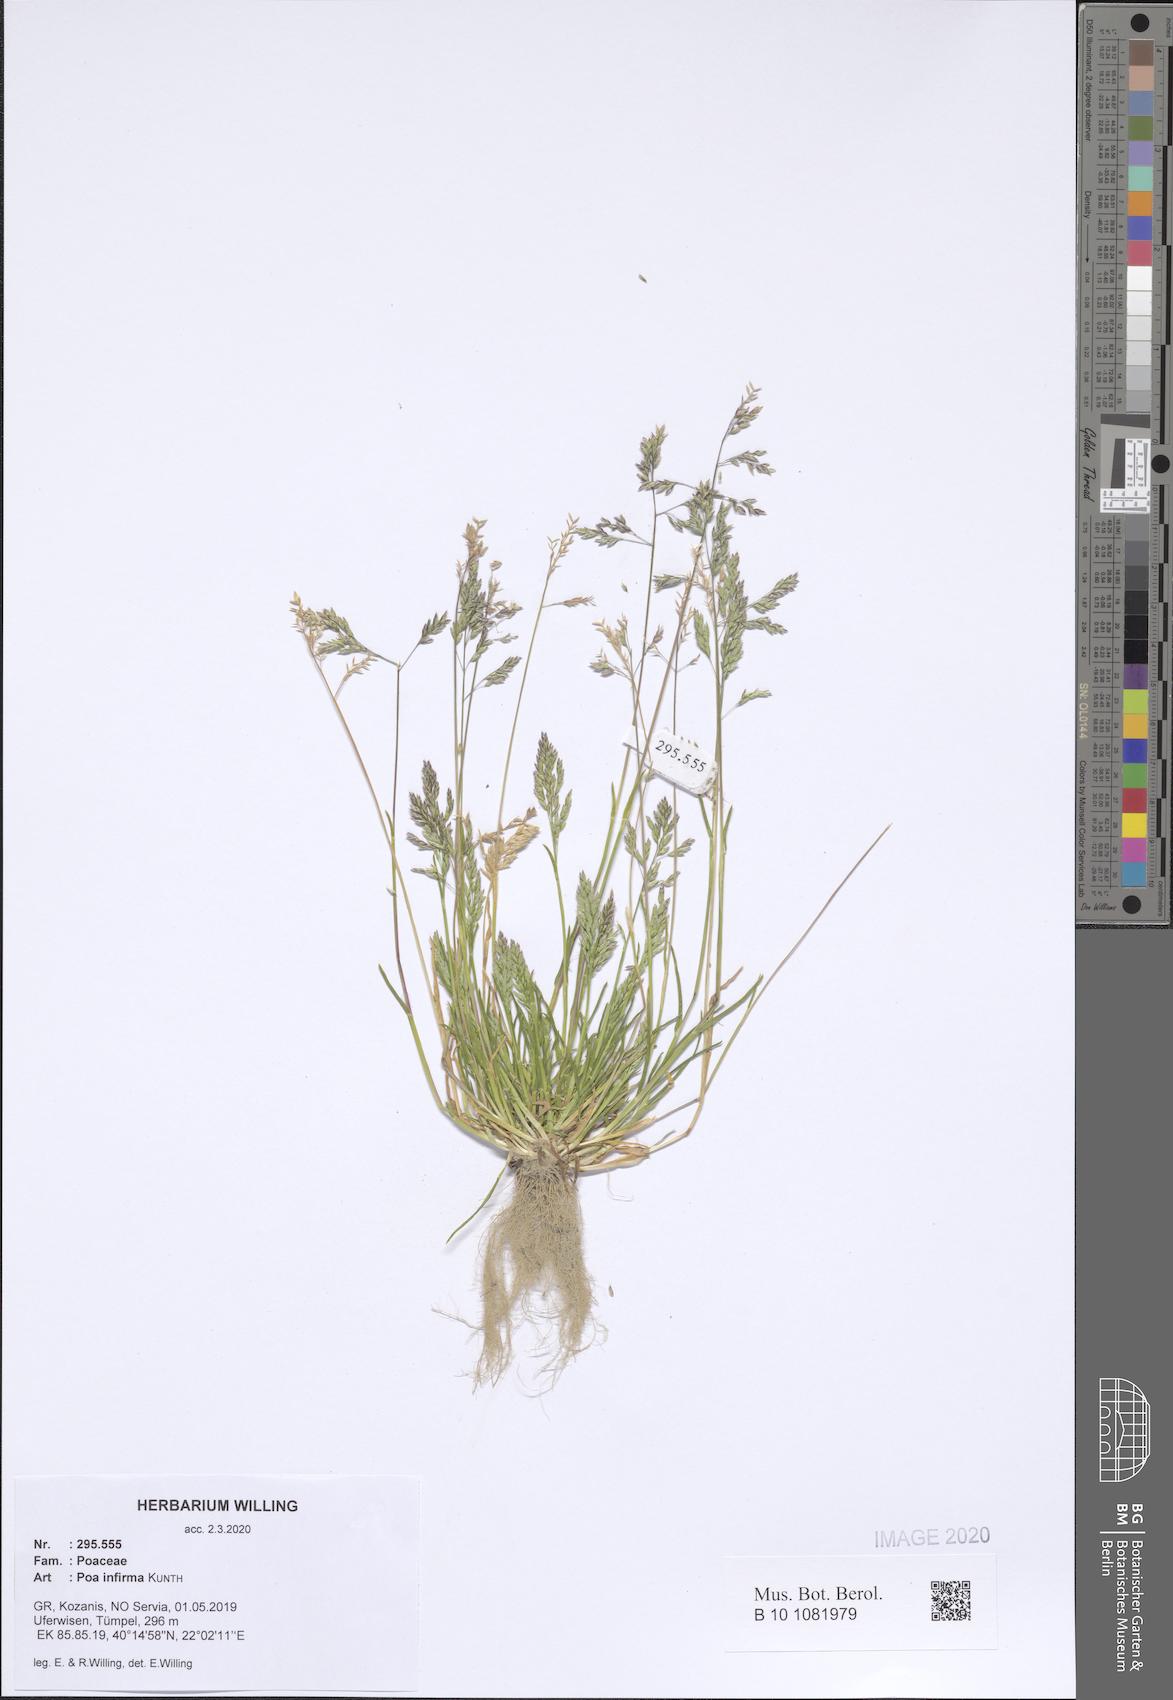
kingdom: Plantae
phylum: Tracheophyta
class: Liliopsida
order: Poales
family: Poaceae
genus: Poa
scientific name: Poa infirma
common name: Weak bluegrass
